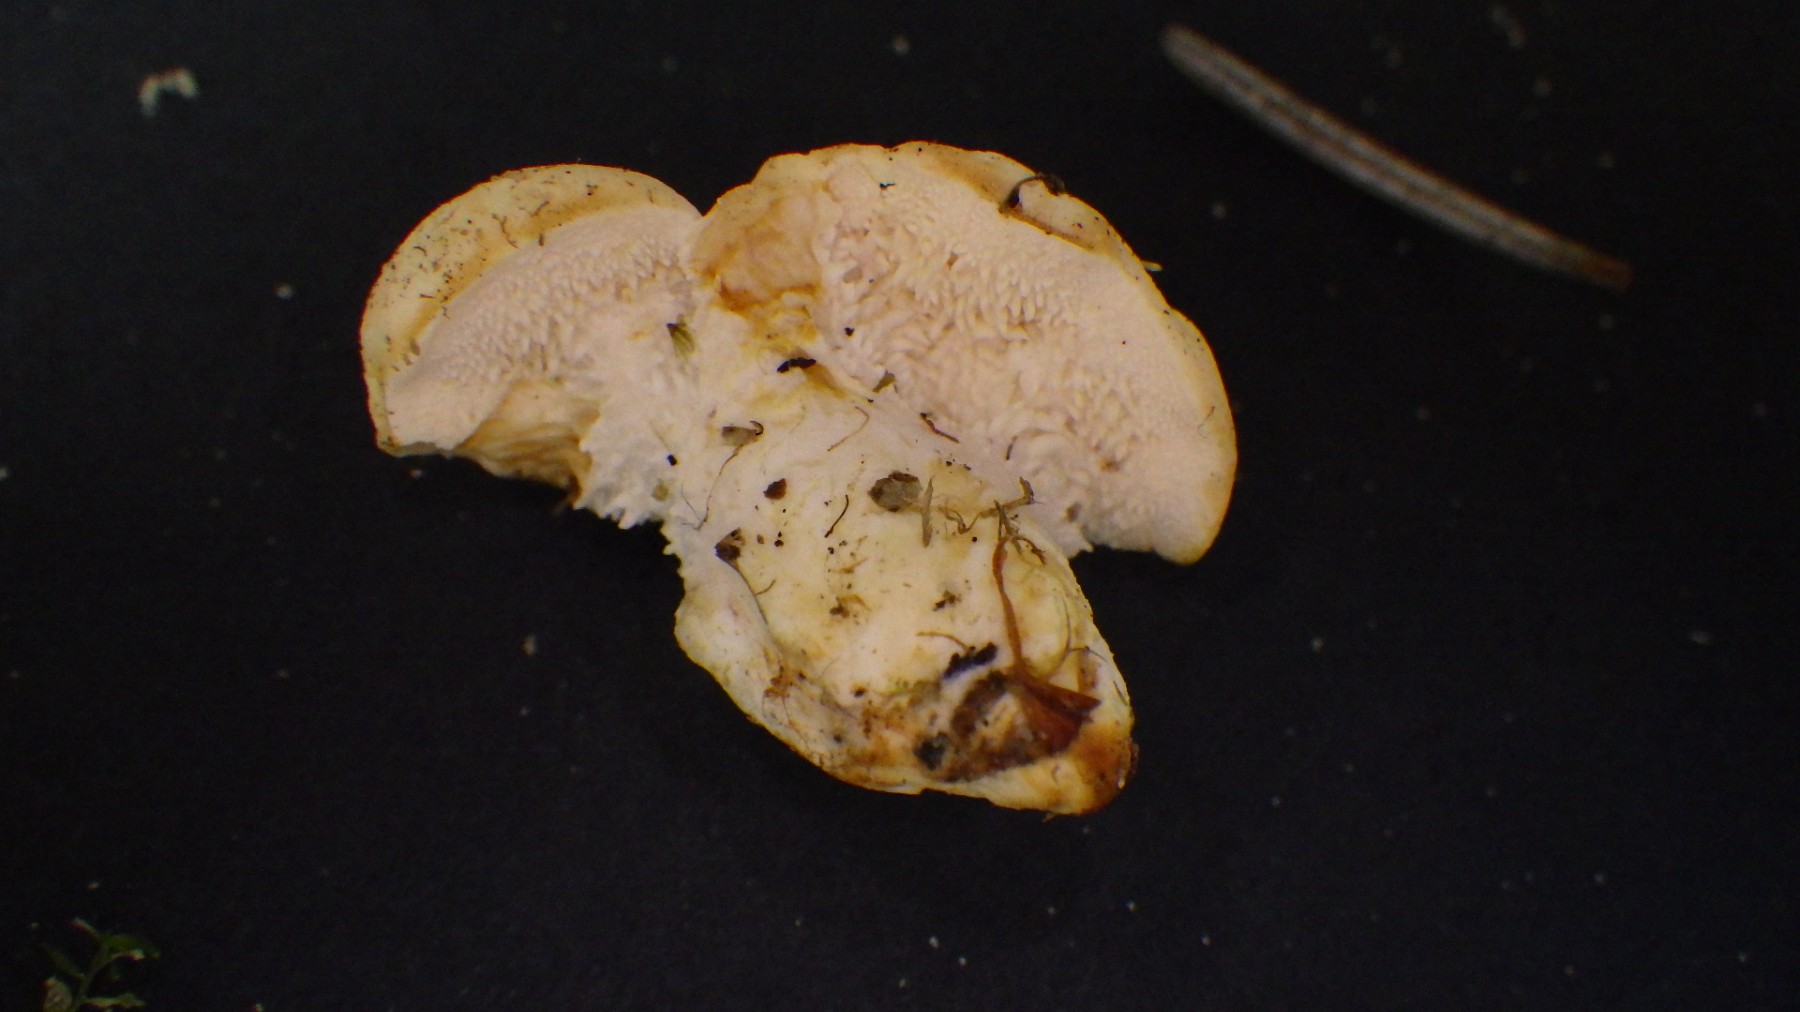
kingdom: Fungi
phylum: Basidiomycota
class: Agaricomycetes
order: Cantharellales
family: Hydnaceae
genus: Hydnum
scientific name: Hydnum
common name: pigsvamp
